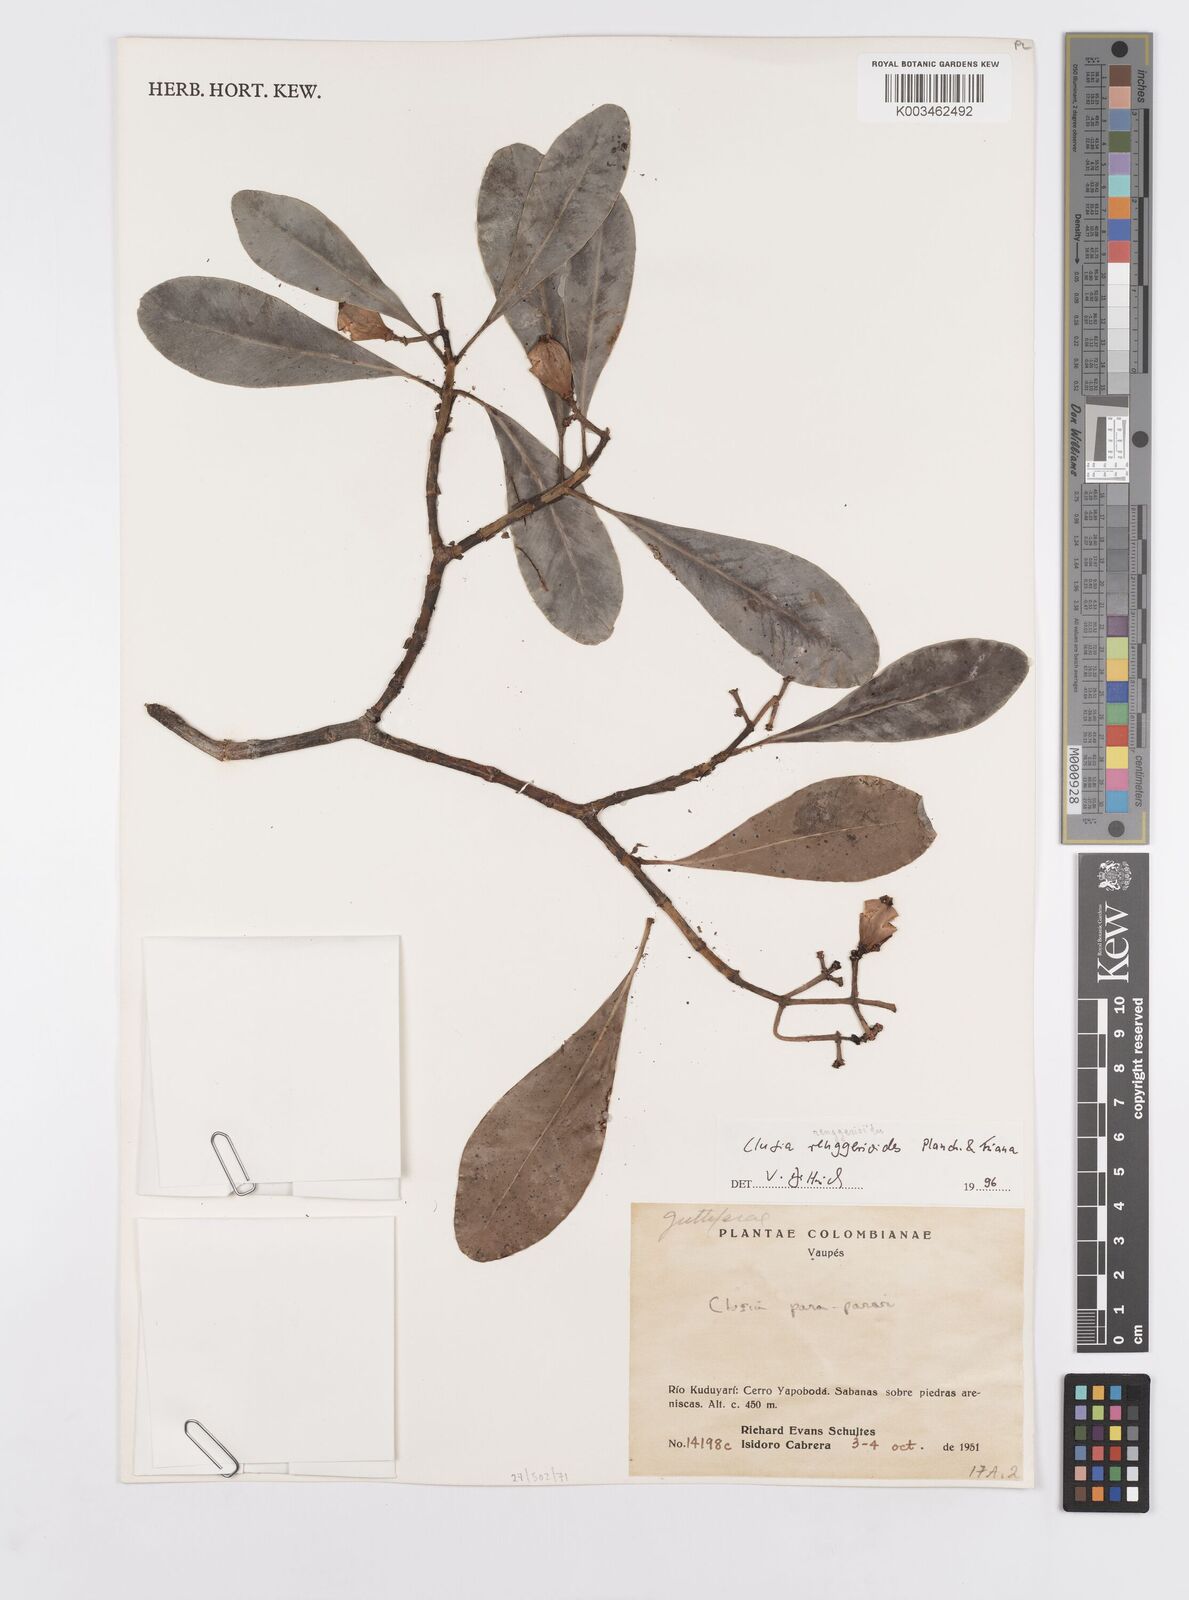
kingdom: Plantae
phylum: Tracheophyta
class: Magnoliopsida
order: Malpighiales
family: Clusiaceae
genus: Clusia
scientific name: Clusia renggerioides
